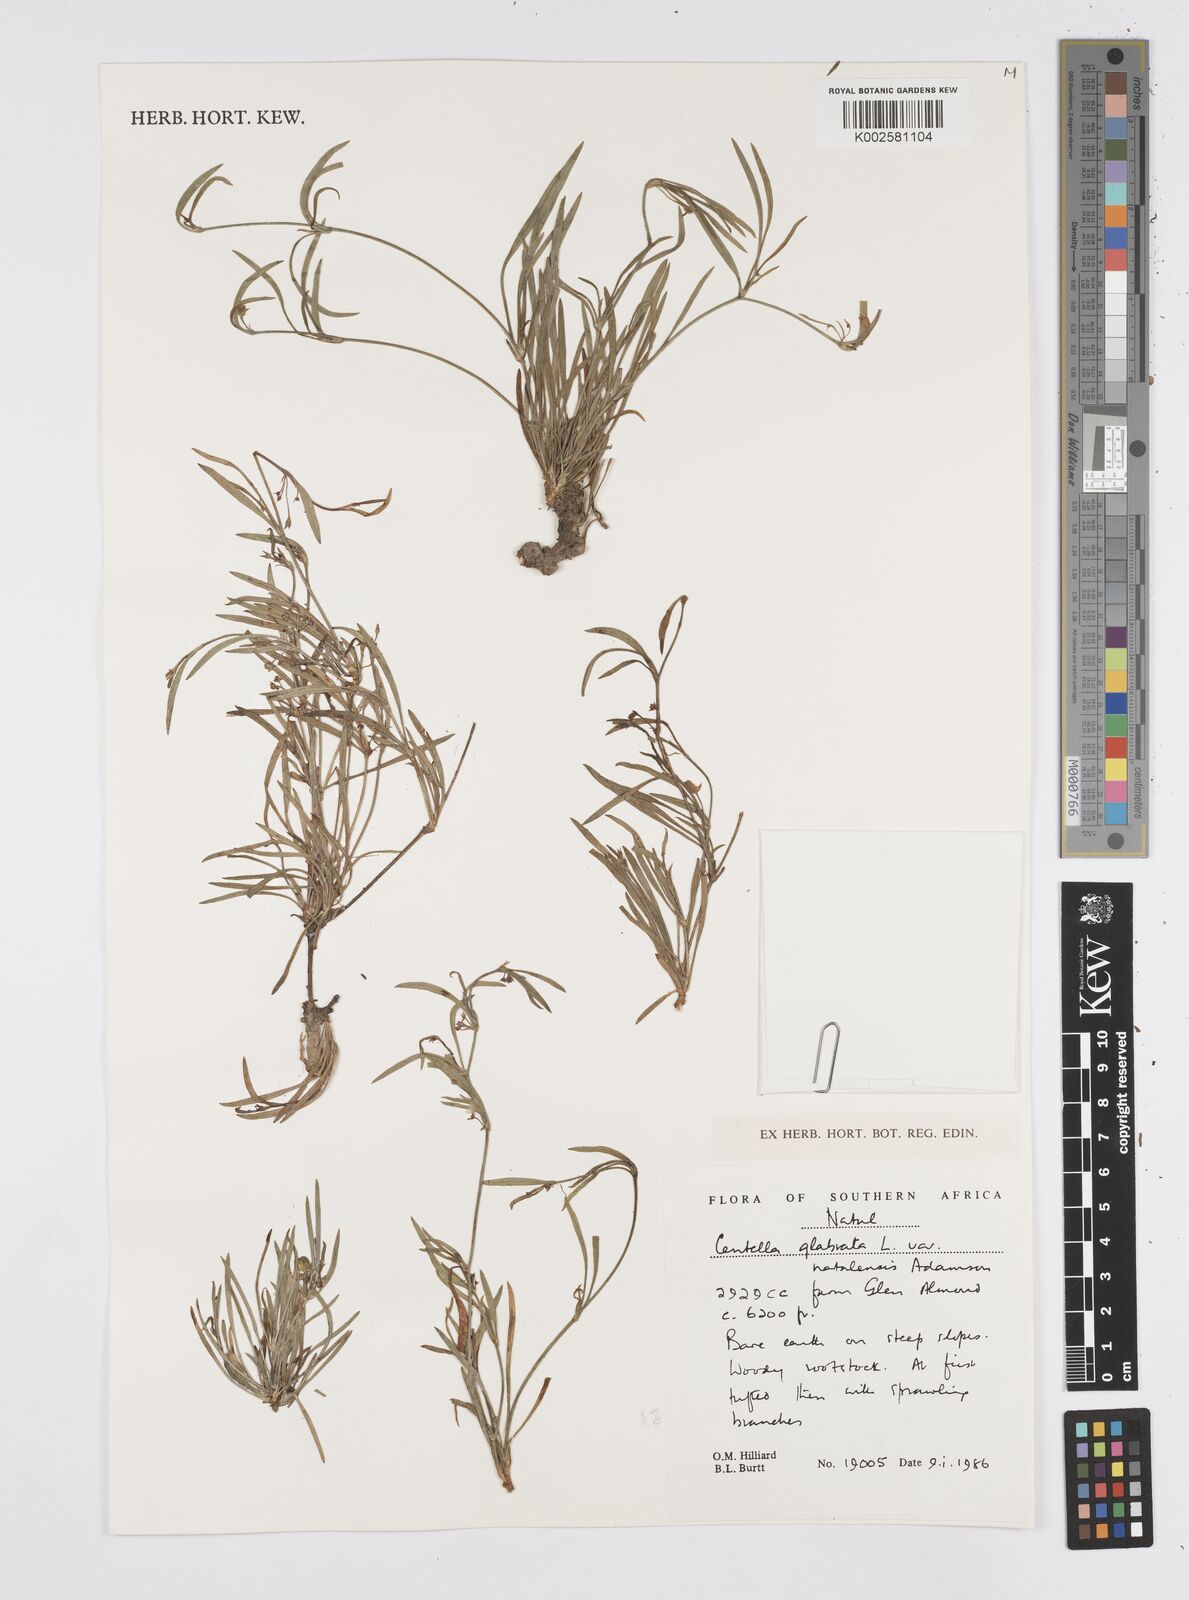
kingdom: Plantae
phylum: Tracheophyta
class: Magnoliopsida
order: Apiales
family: Apiaceae
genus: Centella
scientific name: Centella glabrata
